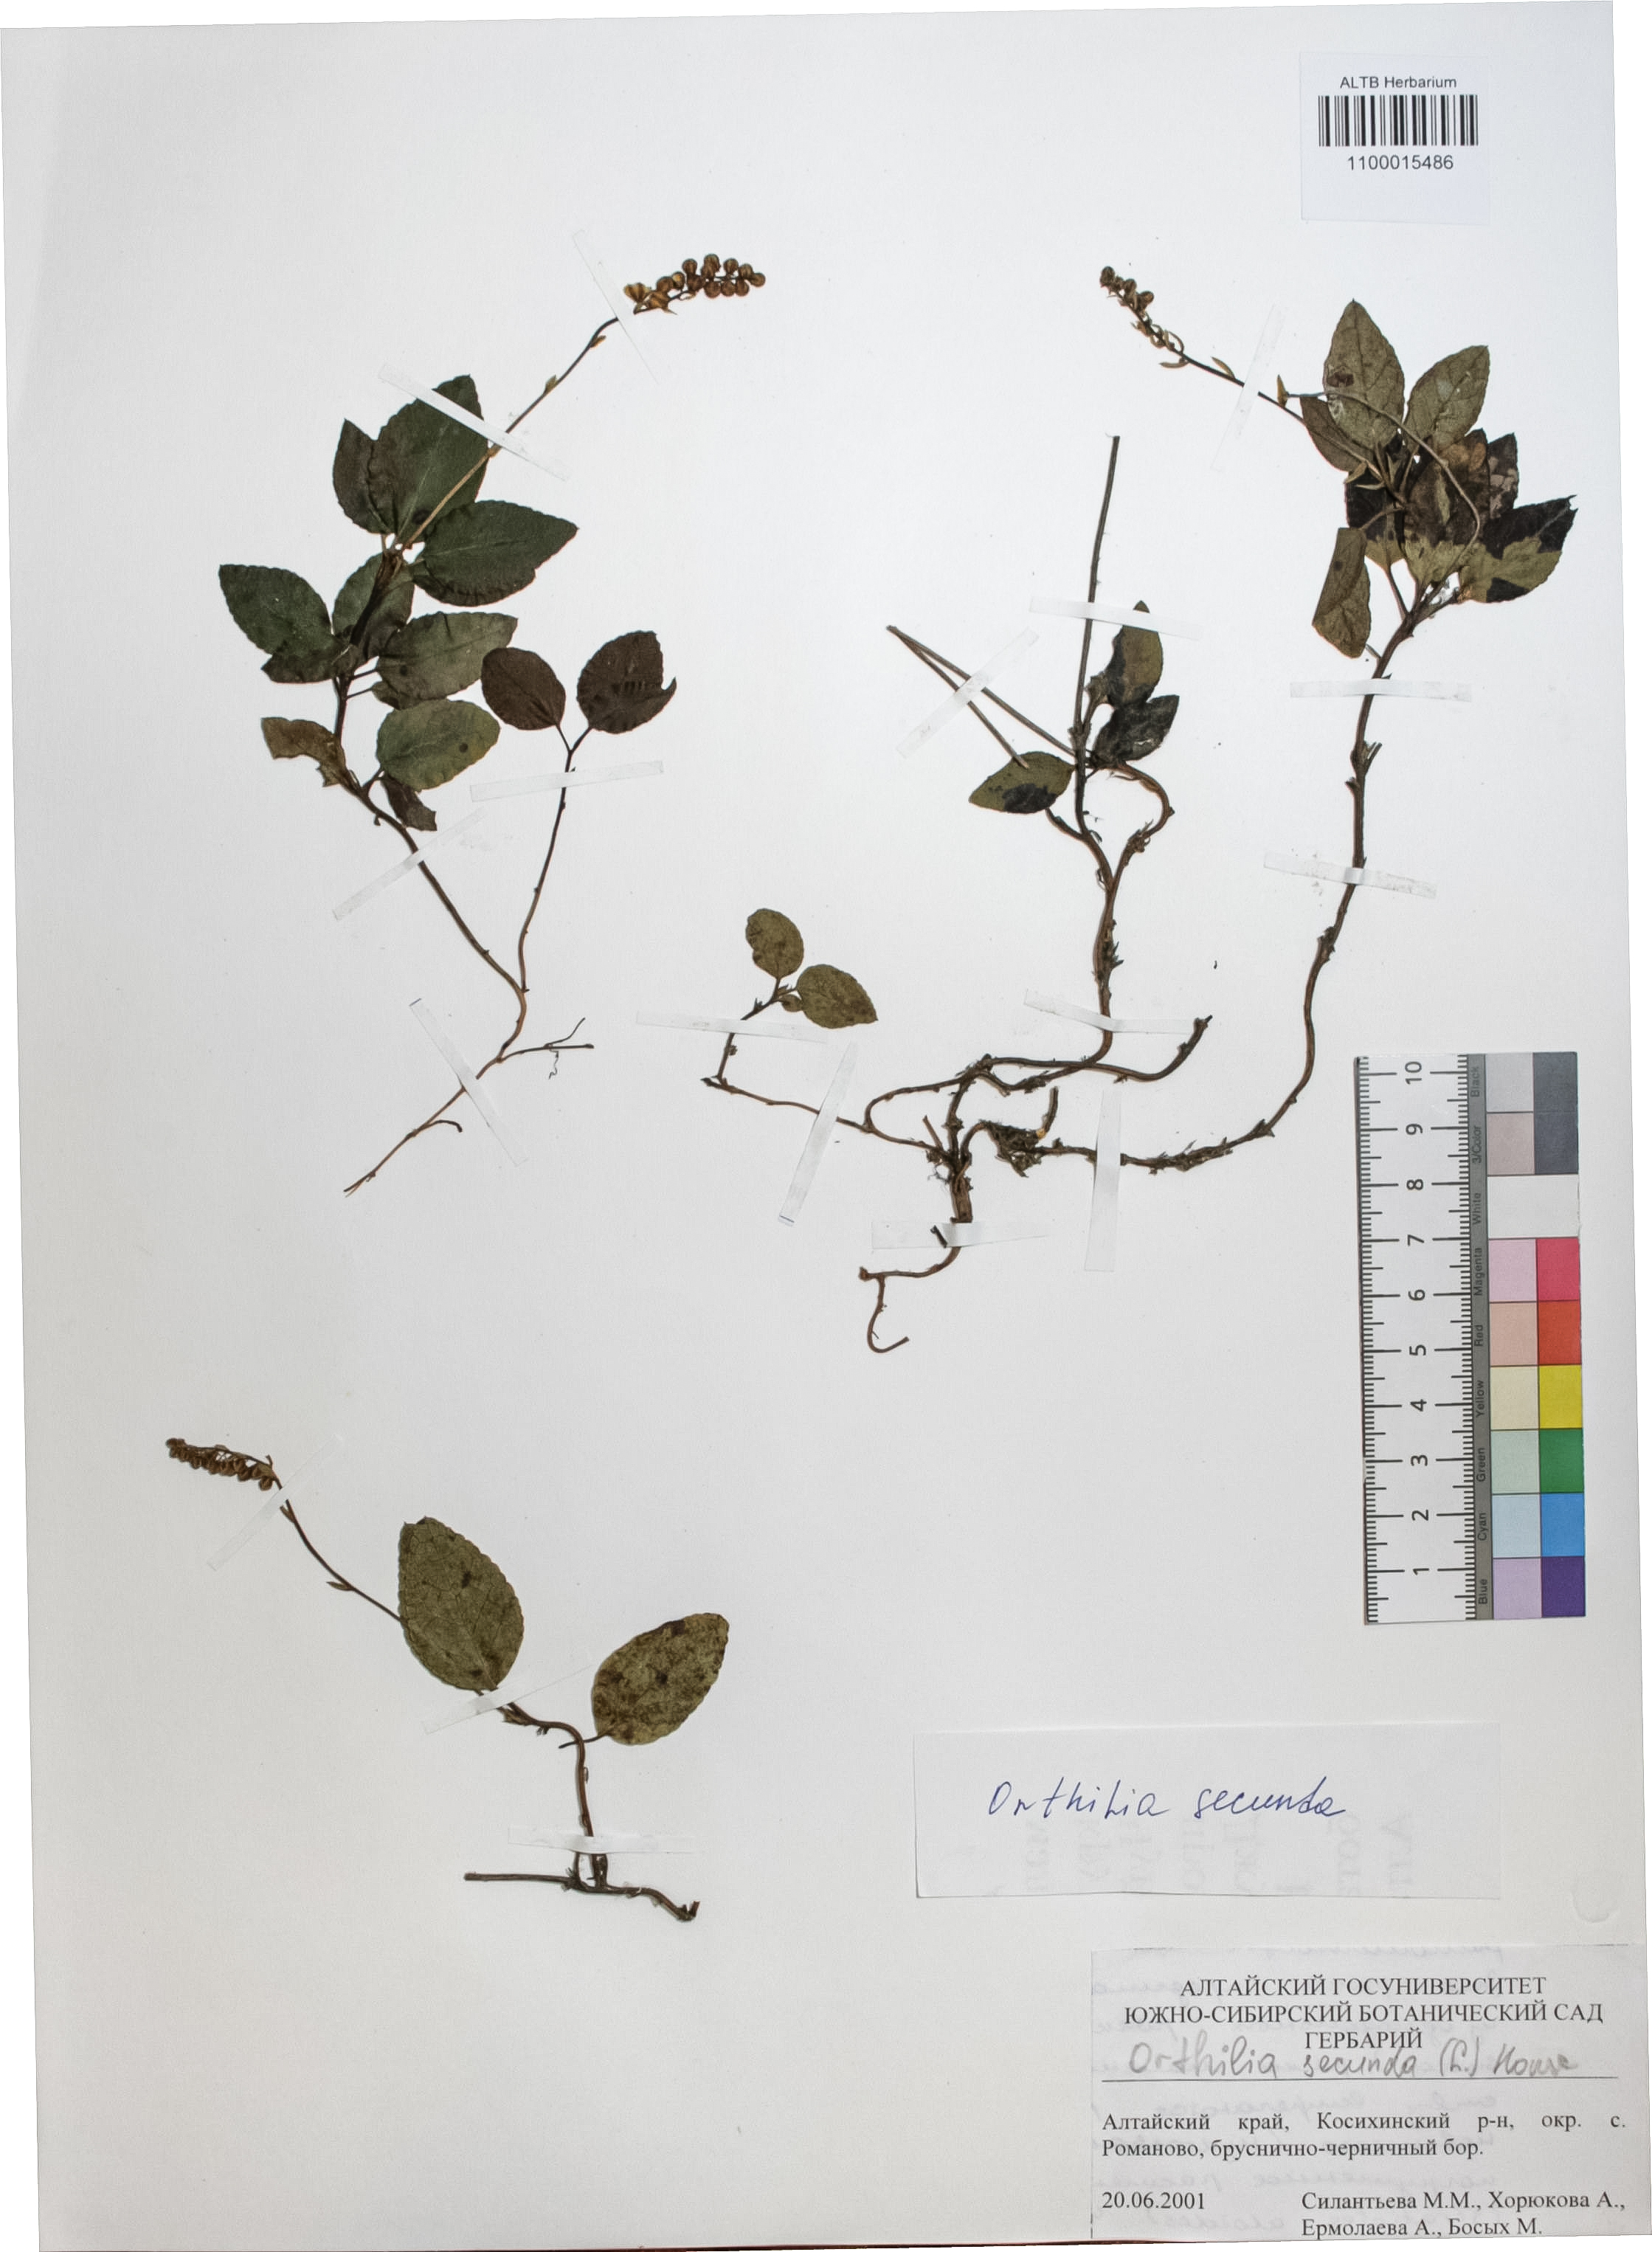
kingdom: Plantae
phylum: Tracheophyta
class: Magnoliopsida
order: Ericales
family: Ericaceae
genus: Orthilia
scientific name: Orthilia secunda
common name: One-sided orthilia
